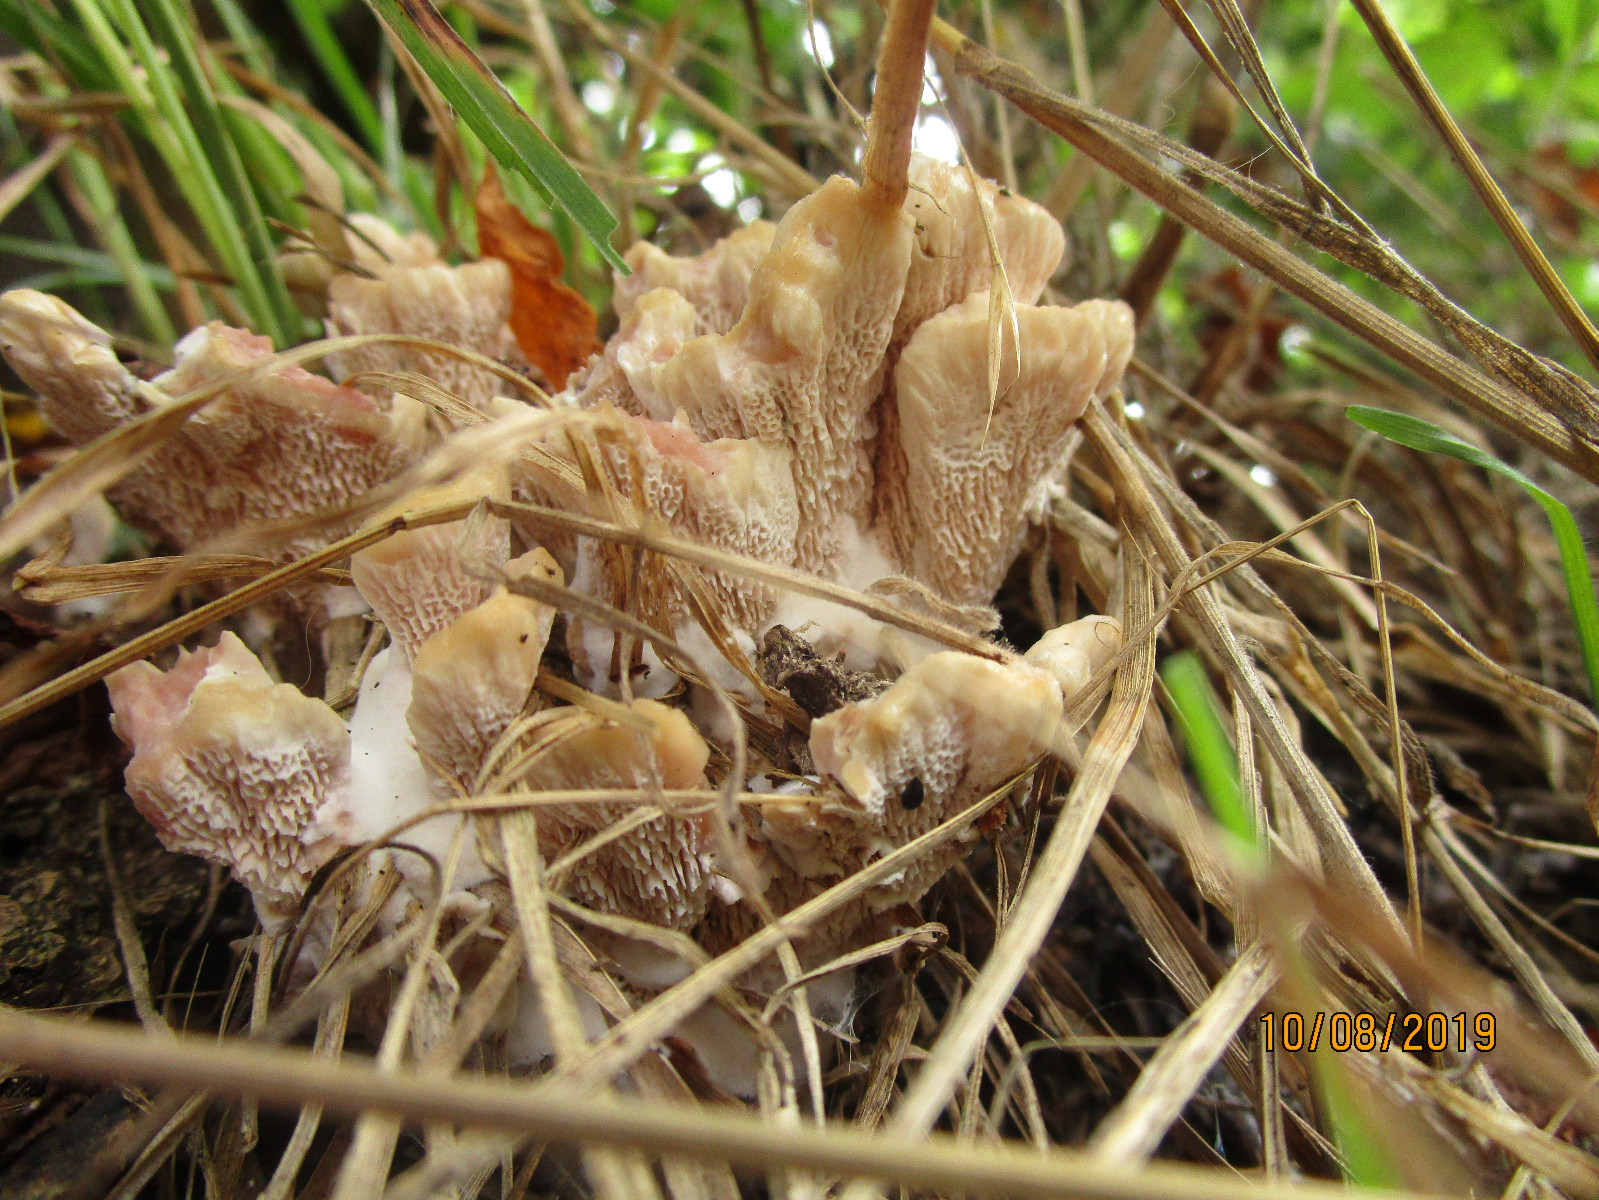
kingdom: Fungi
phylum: Basidiomycota
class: Agaricomycetes
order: Polyporales
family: Podoscyphaceae
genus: Abortiporus
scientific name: Abortiporus biennis
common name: rødmende pjalteporesvamp
